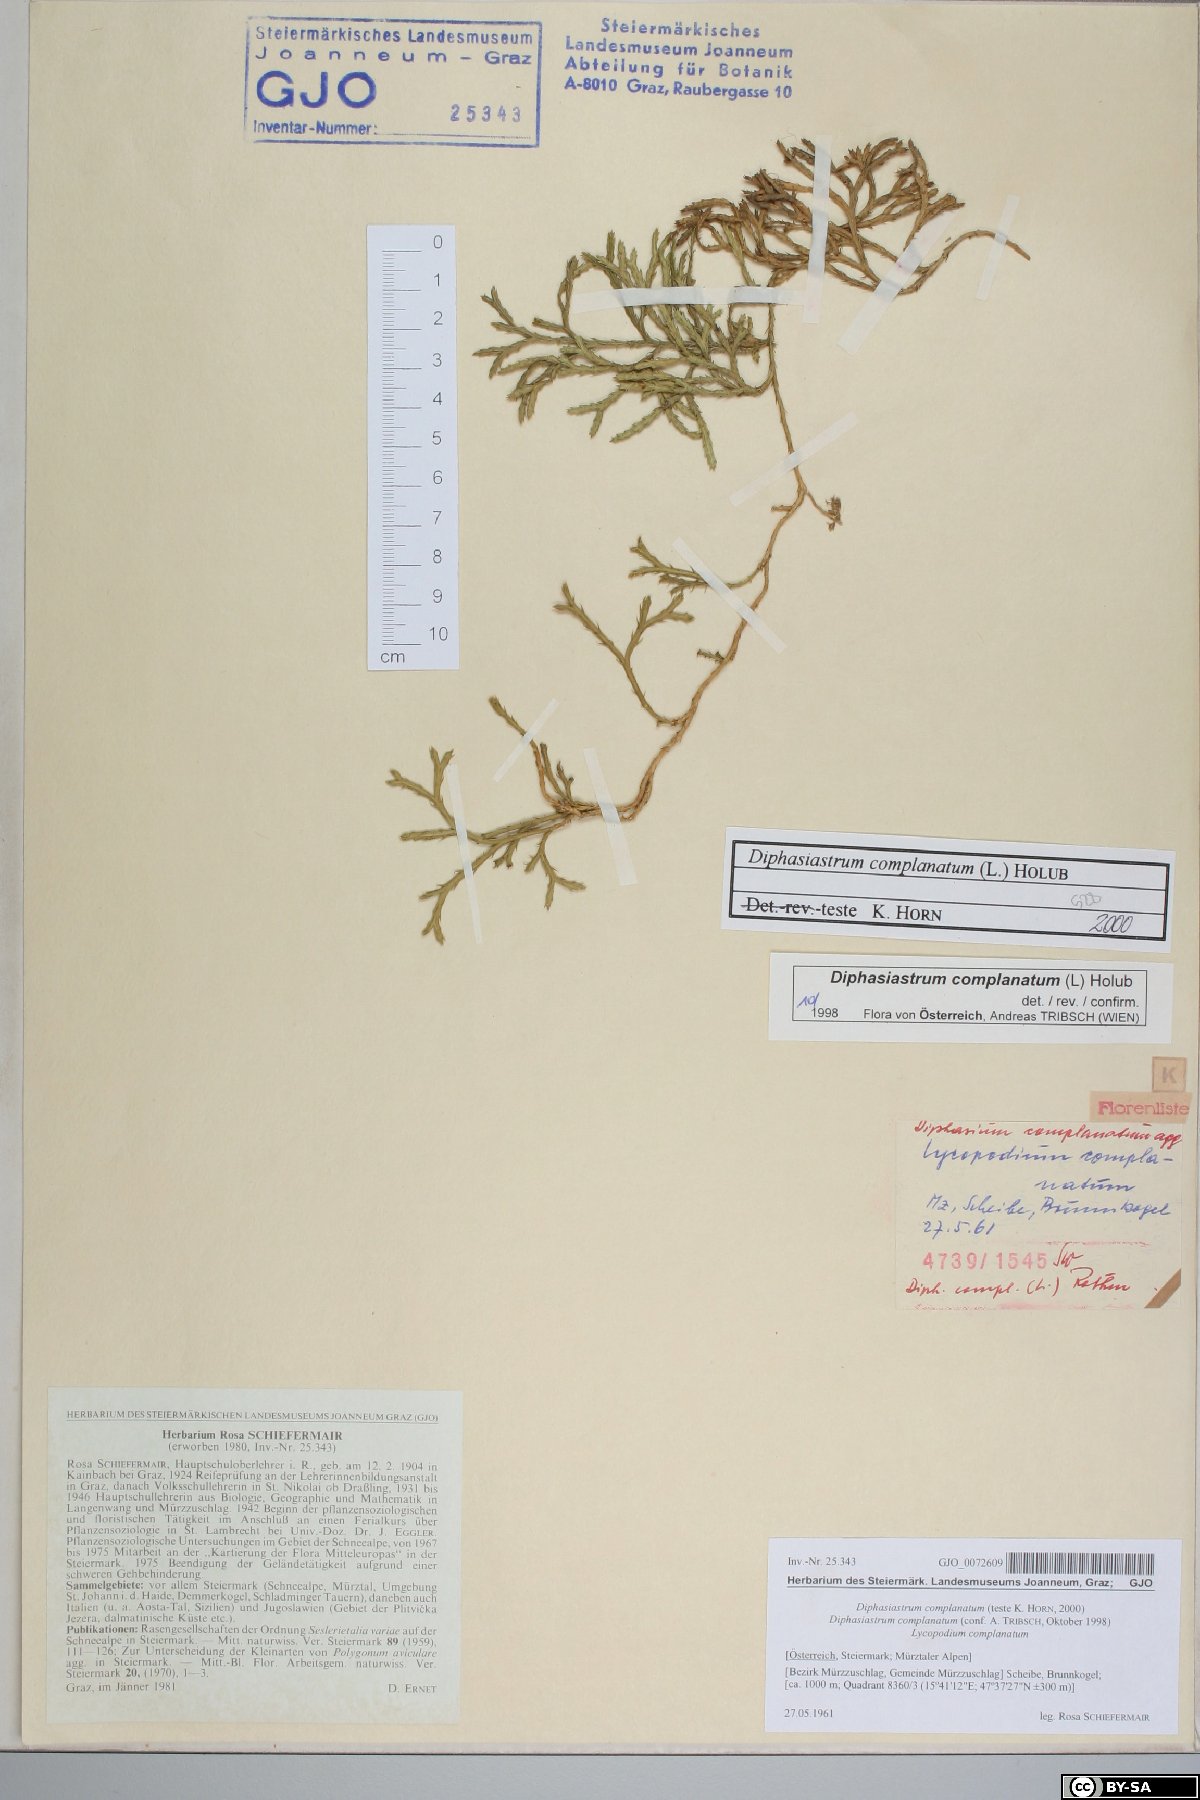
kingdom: Plantae
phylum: Tracheophyta
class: Lycopodiopsida
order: Lycopodiales
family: Lycopodiaceae
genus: Diphasiastrum
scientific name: Diphasiastrum complanatum
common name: Northern running-pine
